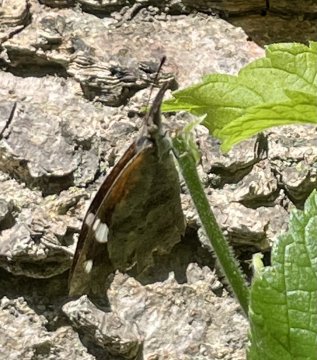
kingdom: Animalia
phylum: Arthropoda
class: Insecta
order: Lepidoptera
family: Nymphalidae
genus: Libytheana
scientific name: Libytheana carinenta
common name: American Snout
